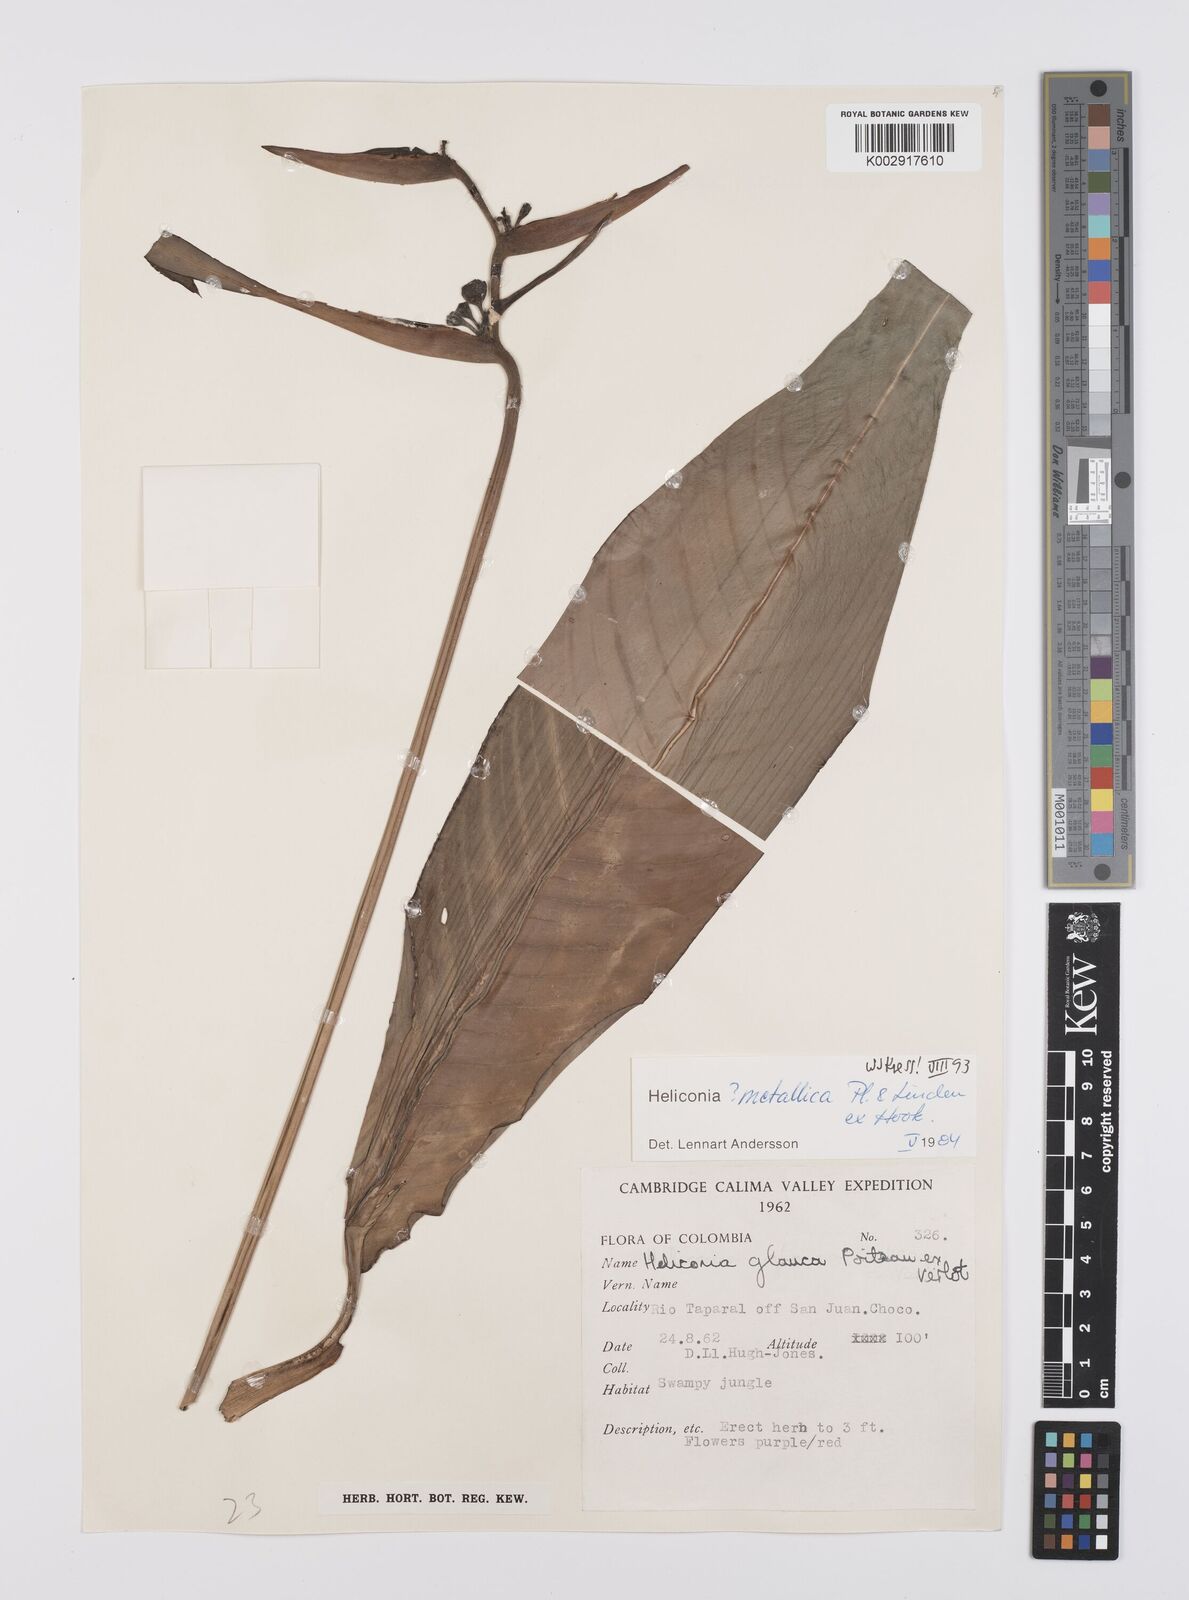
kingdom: Plantae
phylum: Tracheophyta
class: Liliopsida
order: Zingiberales
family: Heliconiaceae
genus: Heliconia
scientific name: Heliconia metallica
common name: Shining bird of paradise
